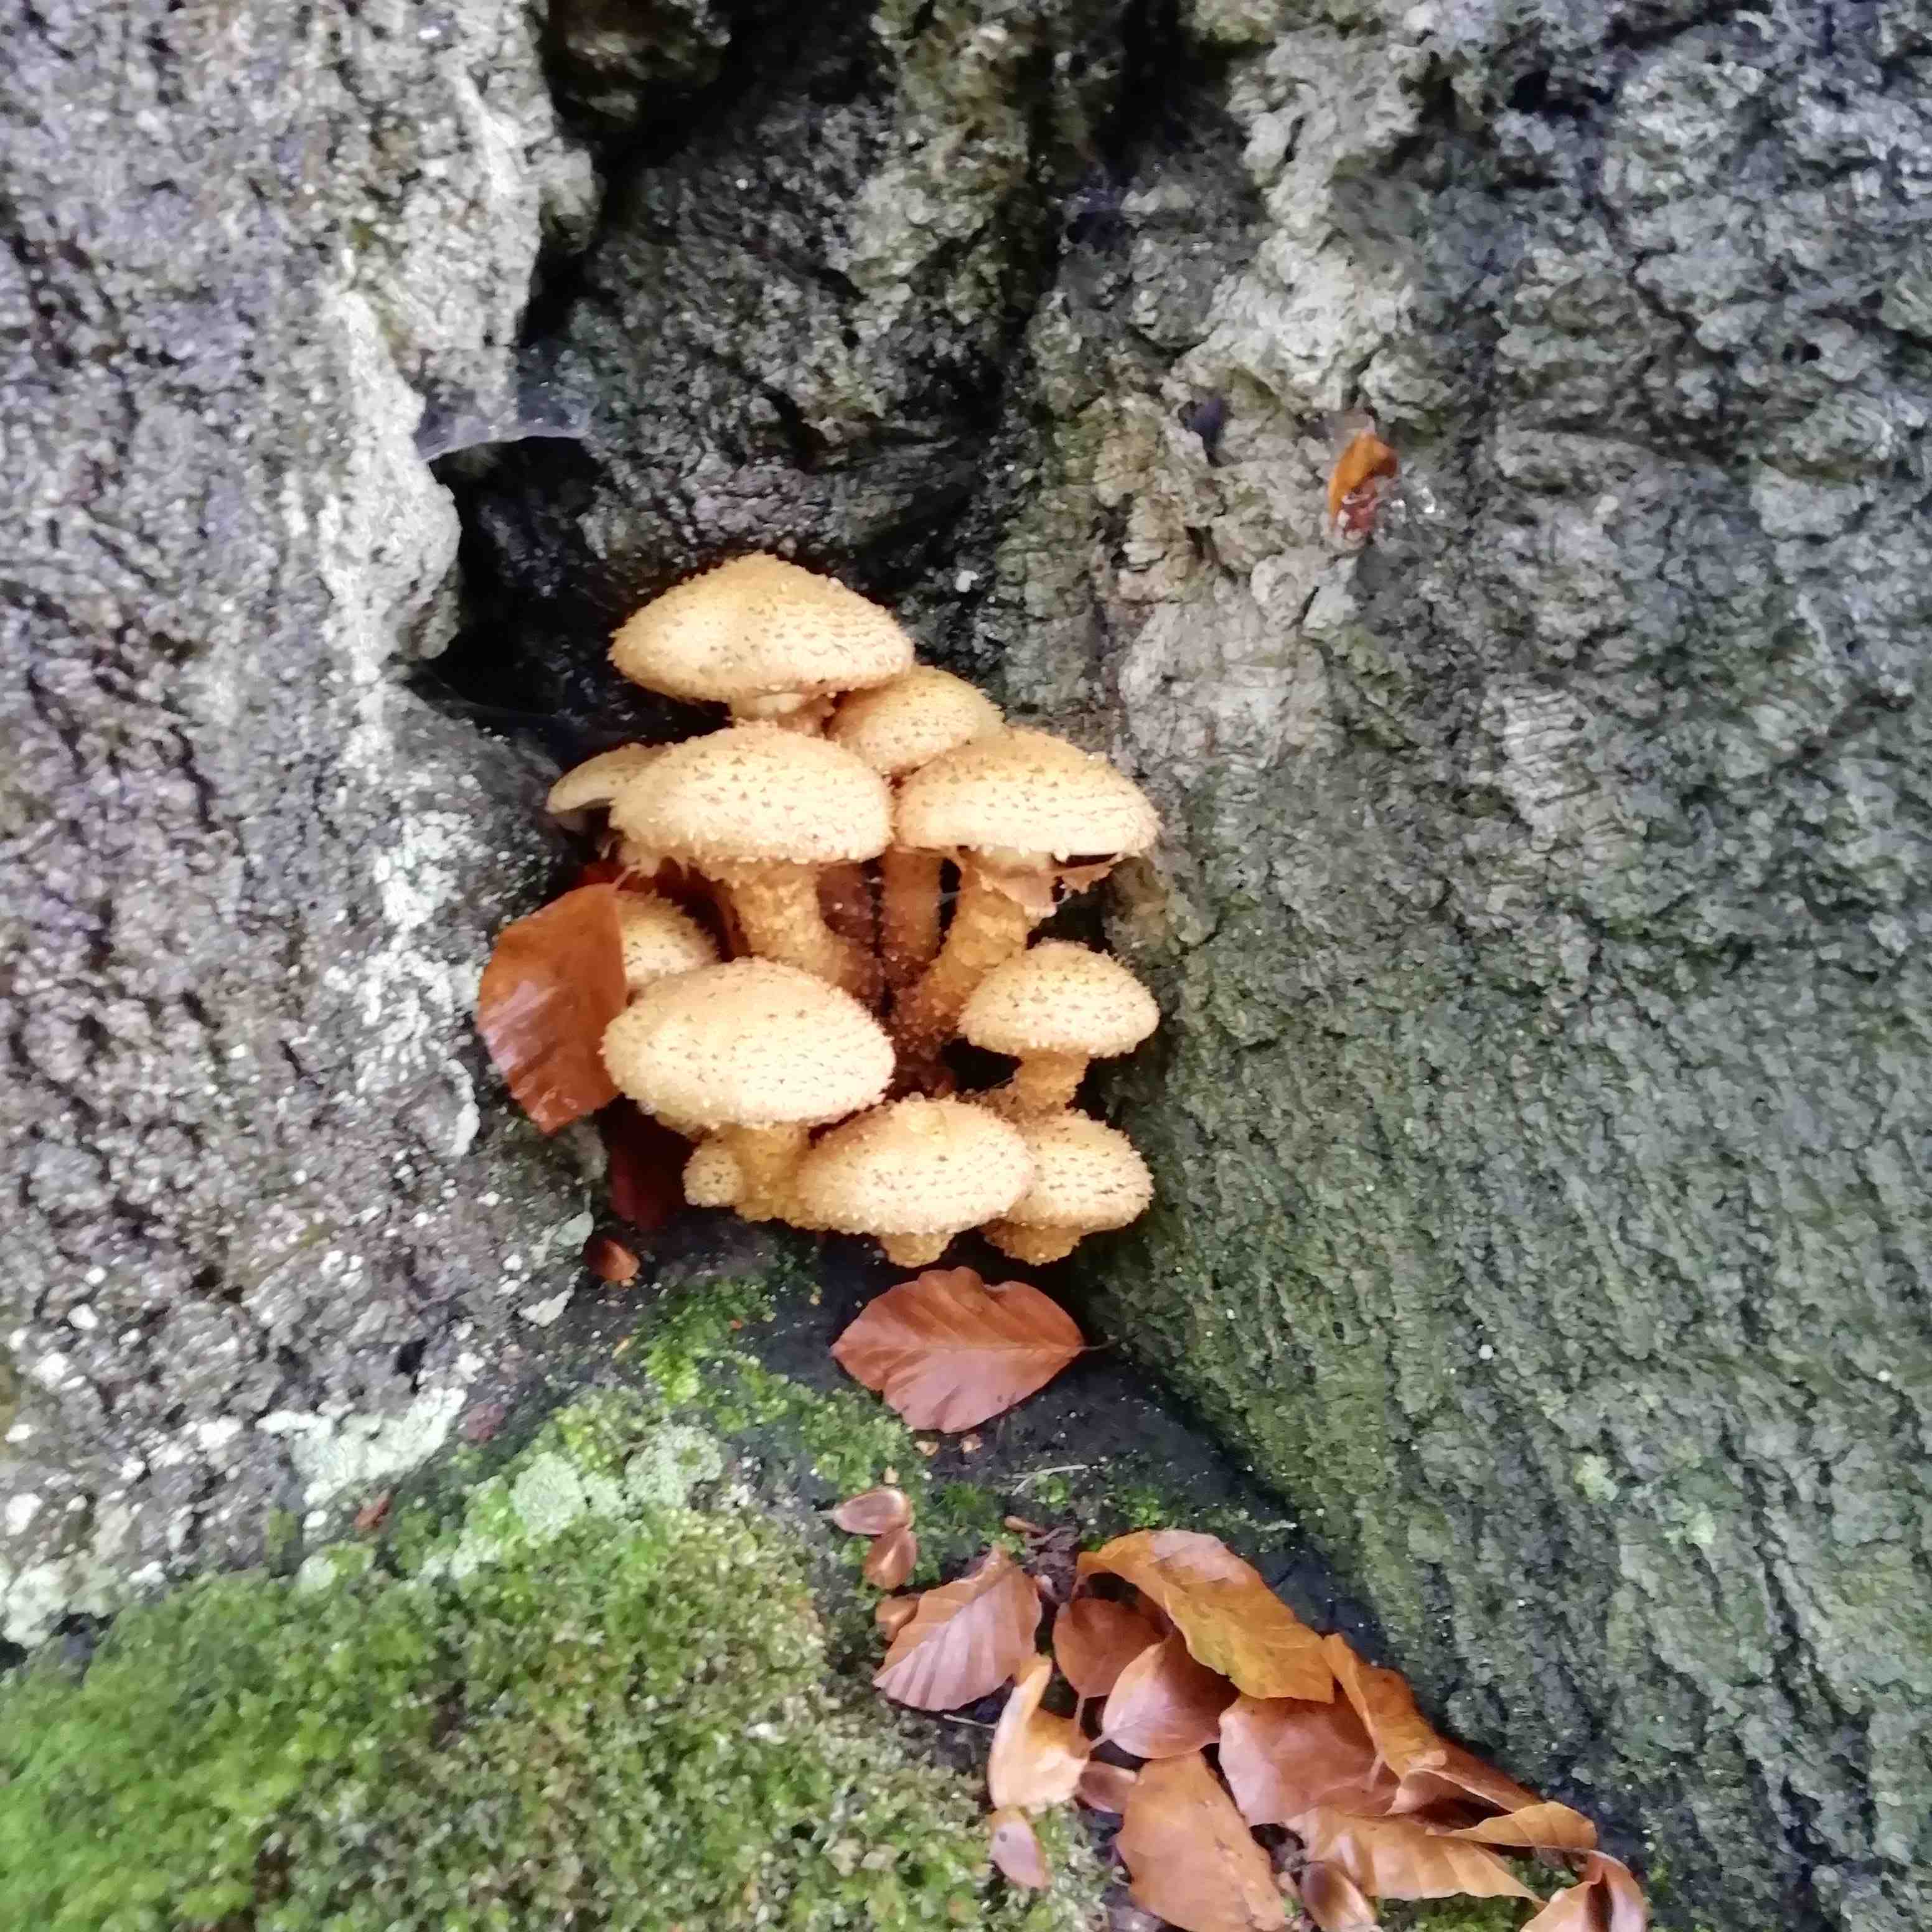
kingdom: Fungi
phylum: Basidiomycota
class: Agaricomycetes
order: Agaricales
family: Strophariaceae
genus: Pholiota
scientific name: Pholiota squarrosa
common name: krumskællet skælhat
